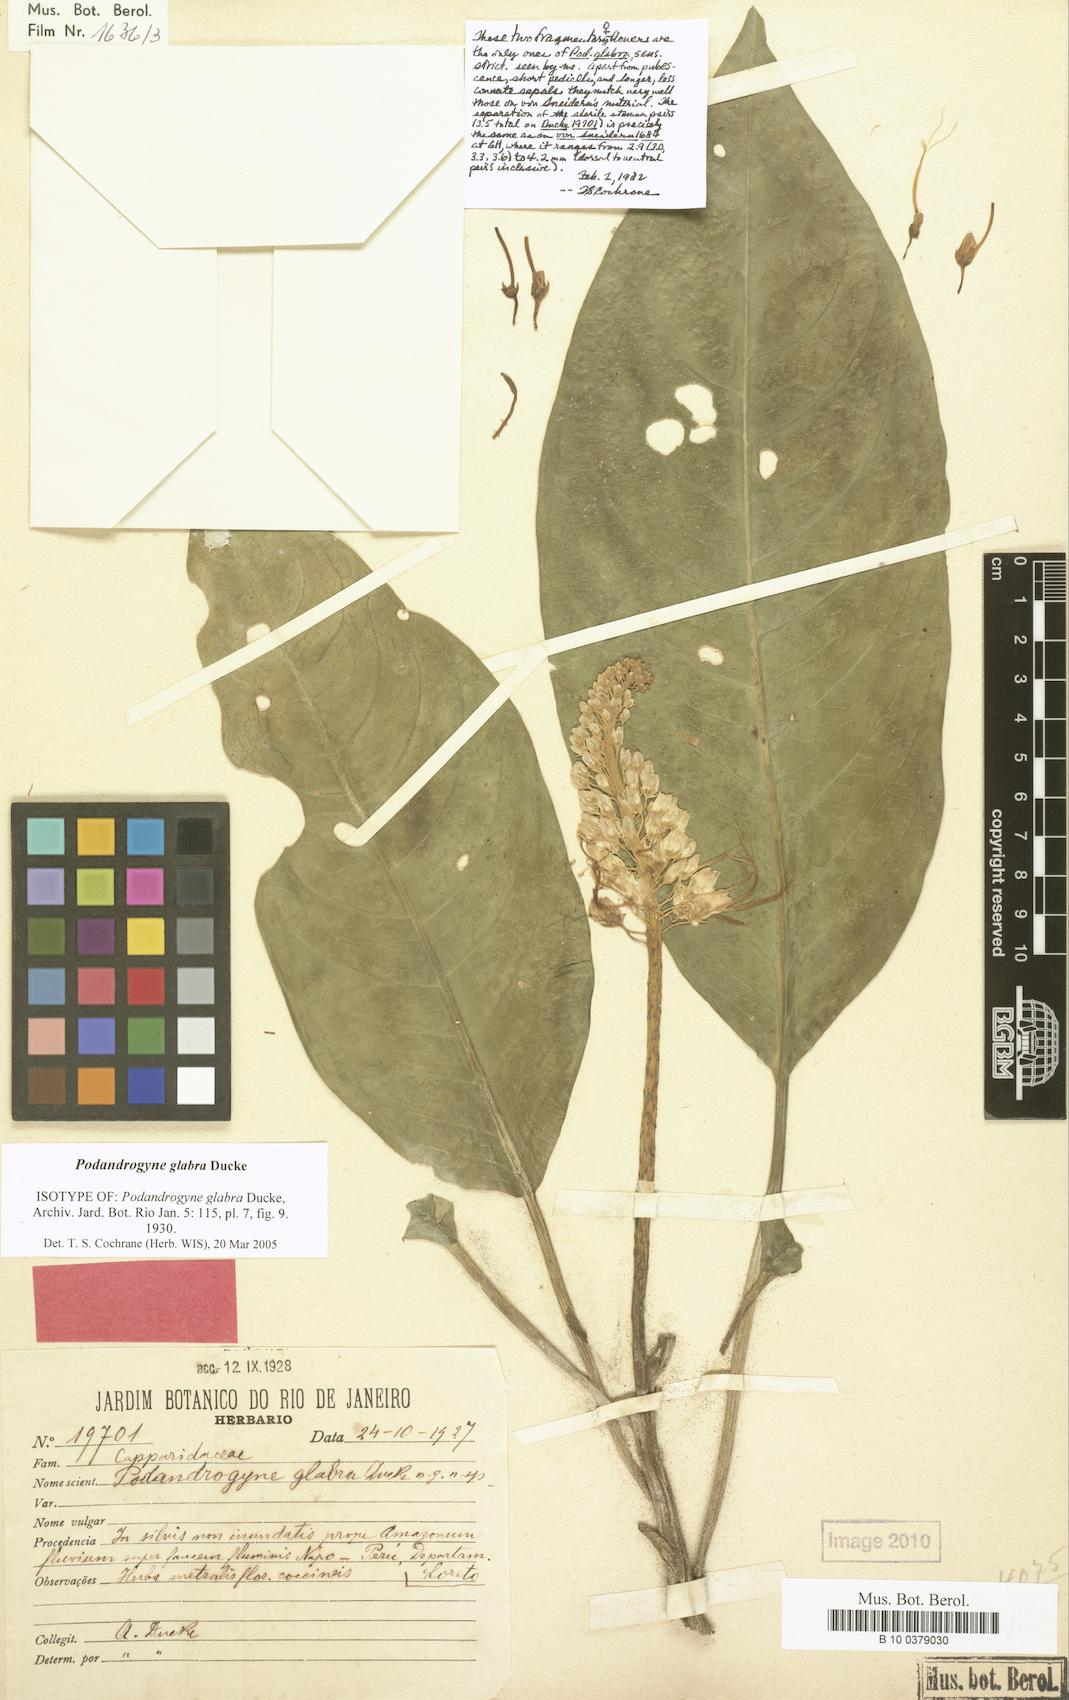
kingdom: Plantae
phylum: Tracheophyta
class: Magnoliopsida
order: Brassicales
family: Cleomaceae
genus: Podandrogyne
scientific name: Podandrogyne glabra
